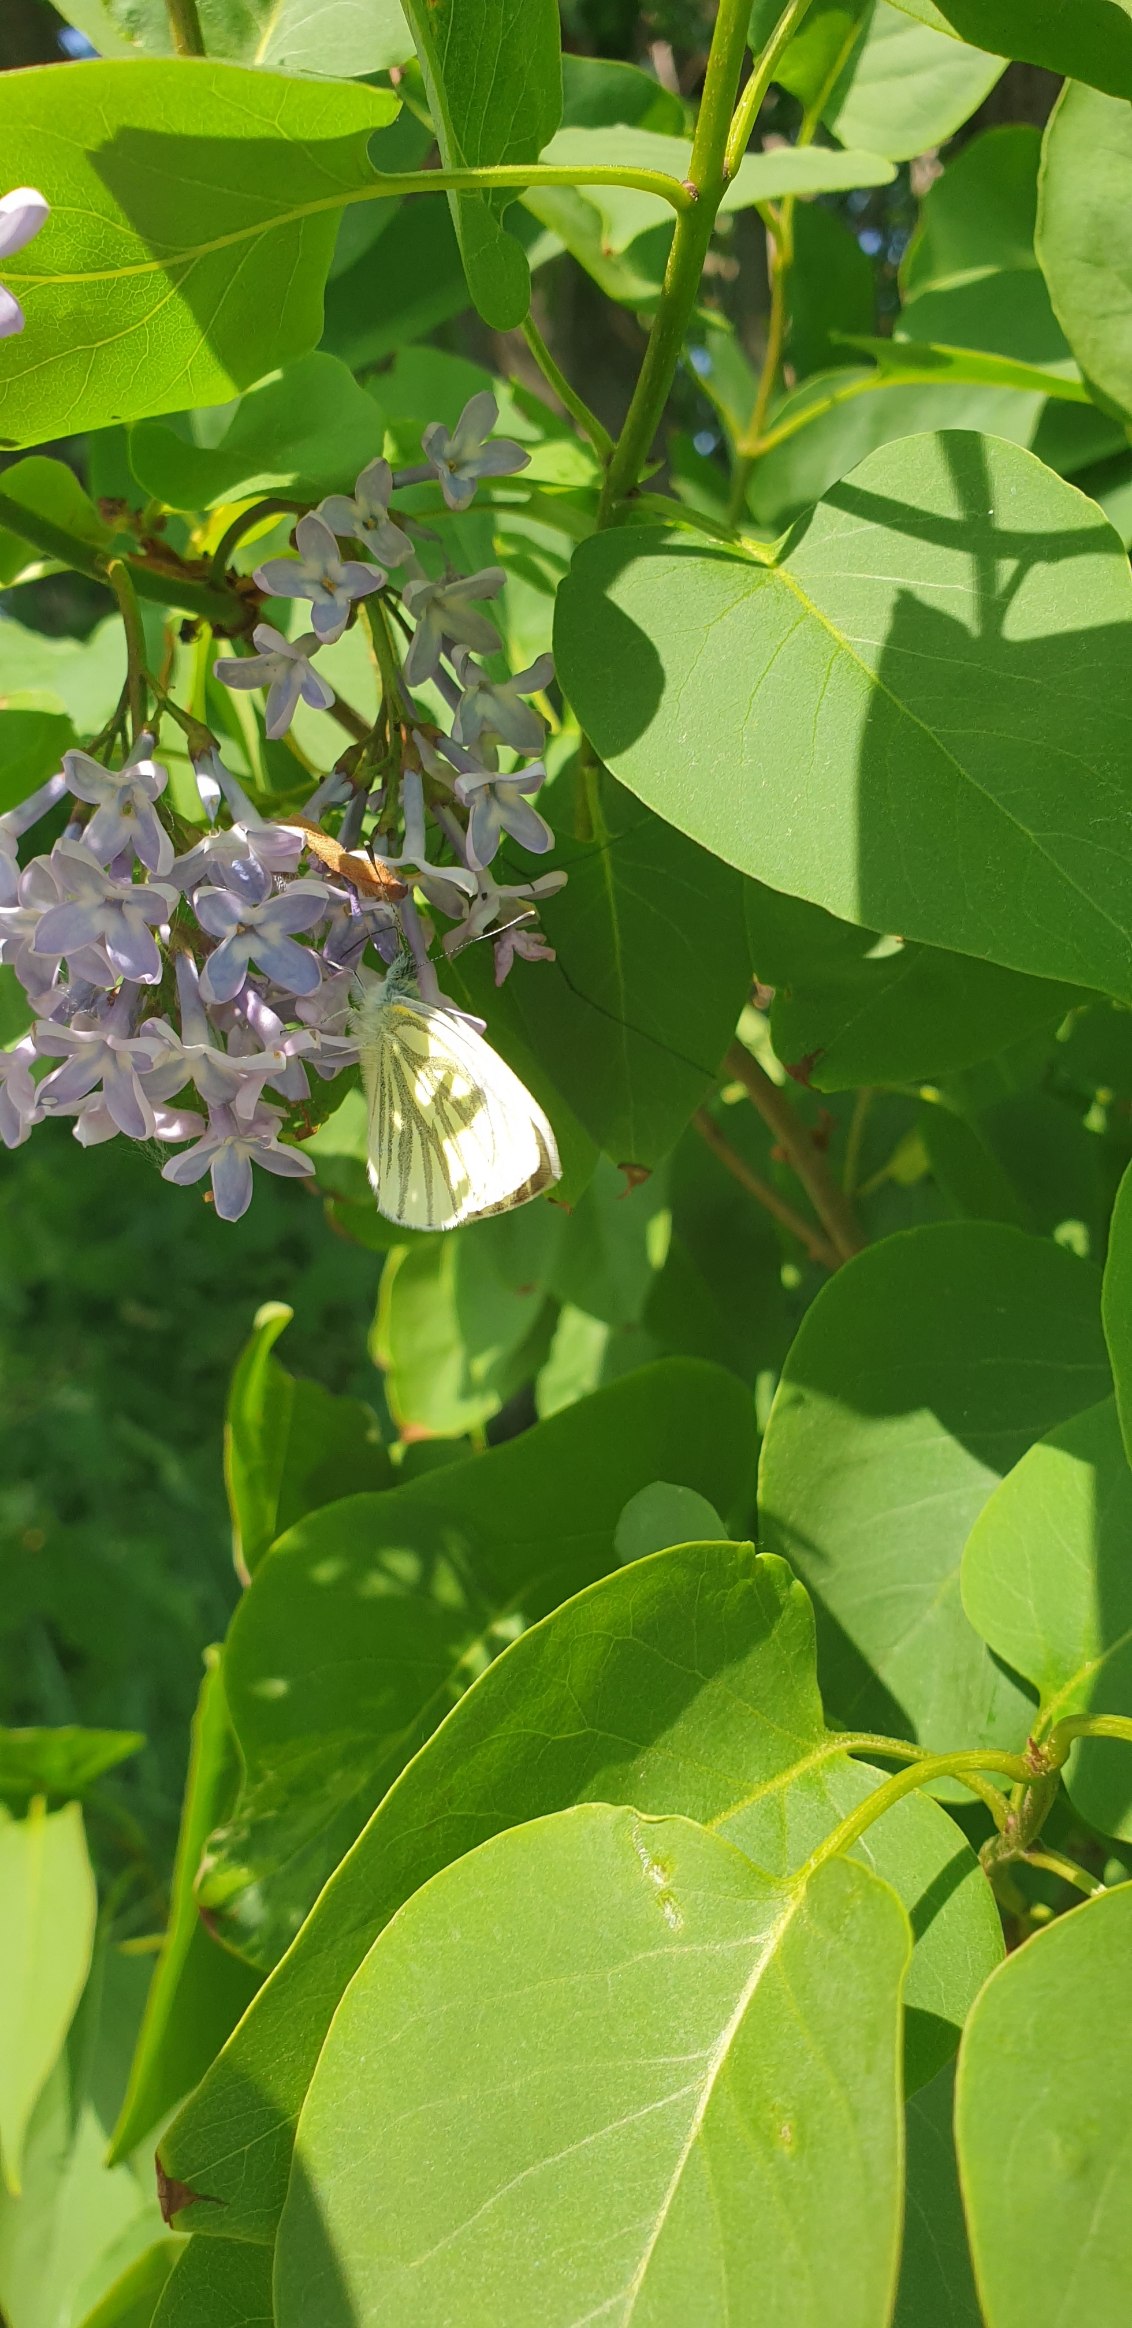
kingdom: Animalia
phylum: Arthropoda
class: Insecta
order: Lepidoptera
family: Pieridae
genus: Pieris
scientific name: Pieris napi
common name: Grønåret kålsommerfugl
